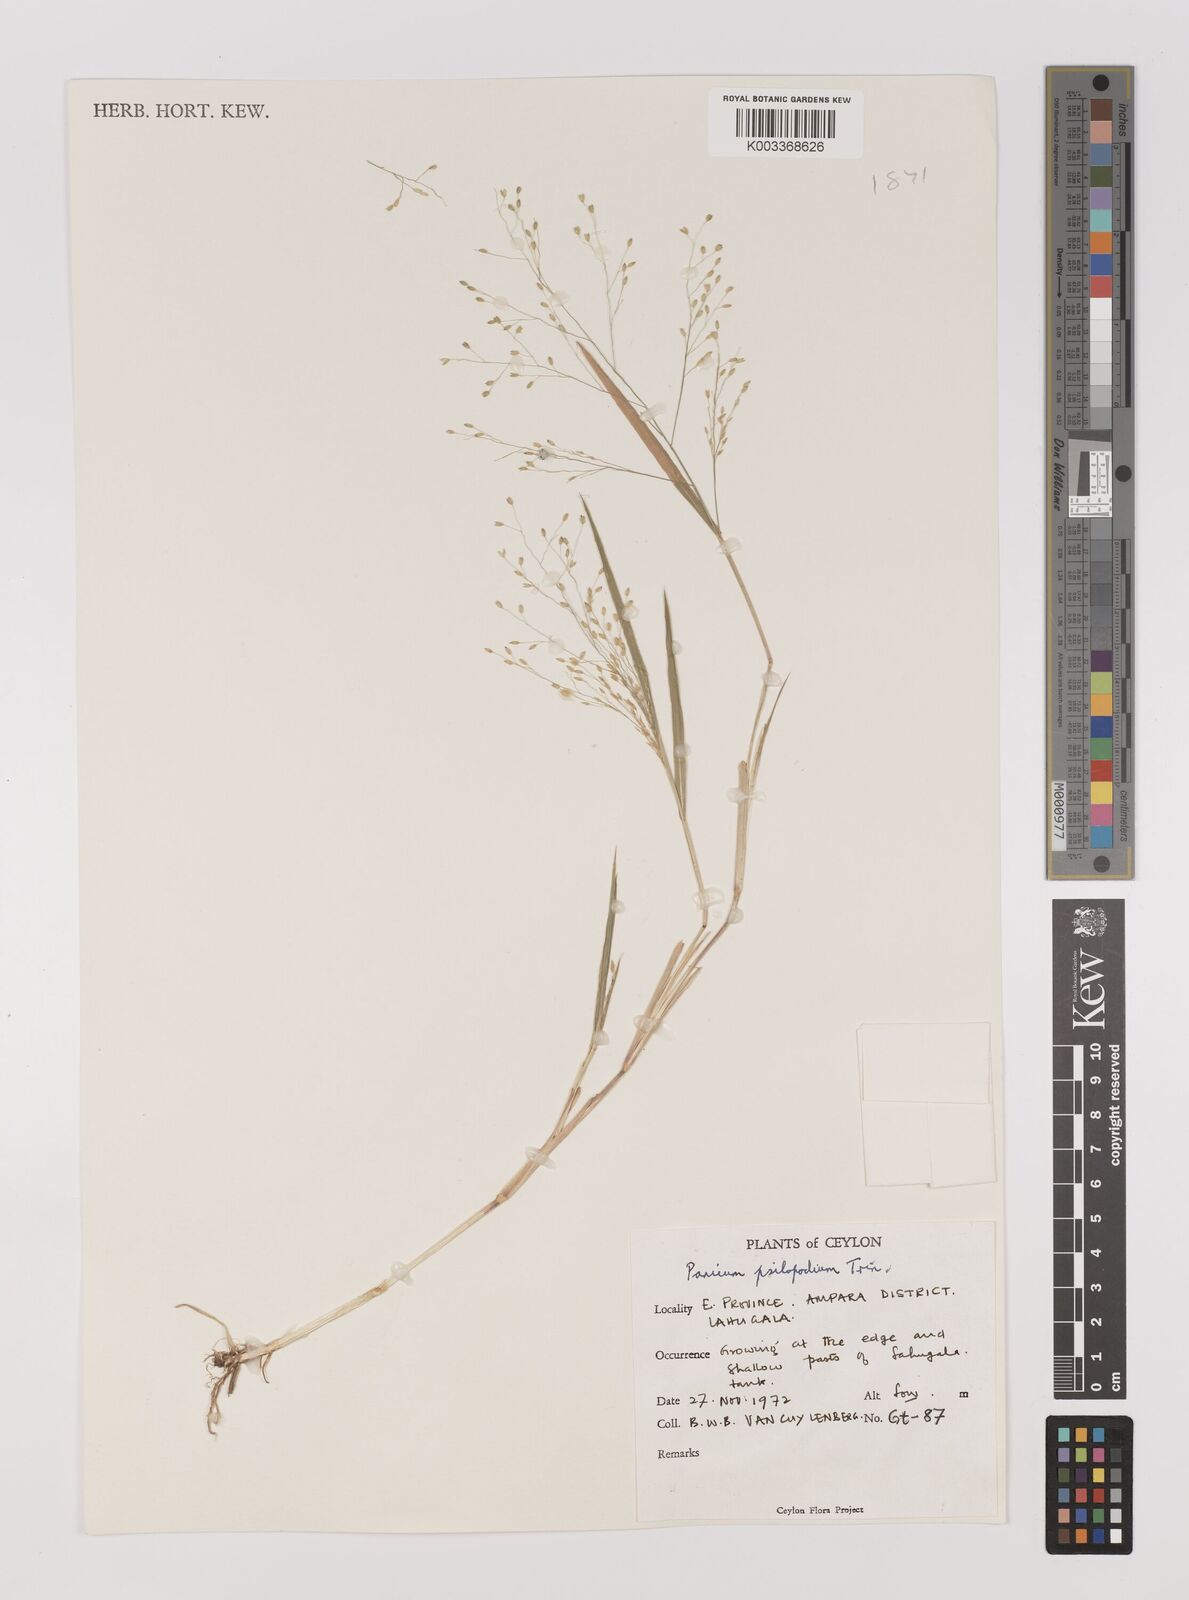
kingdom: Plantae
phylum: Tracheophyta
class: Liliopsida
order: Poales
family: Poaceae
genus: Panicum
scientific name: Panicum sumatrense
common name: Little millet
